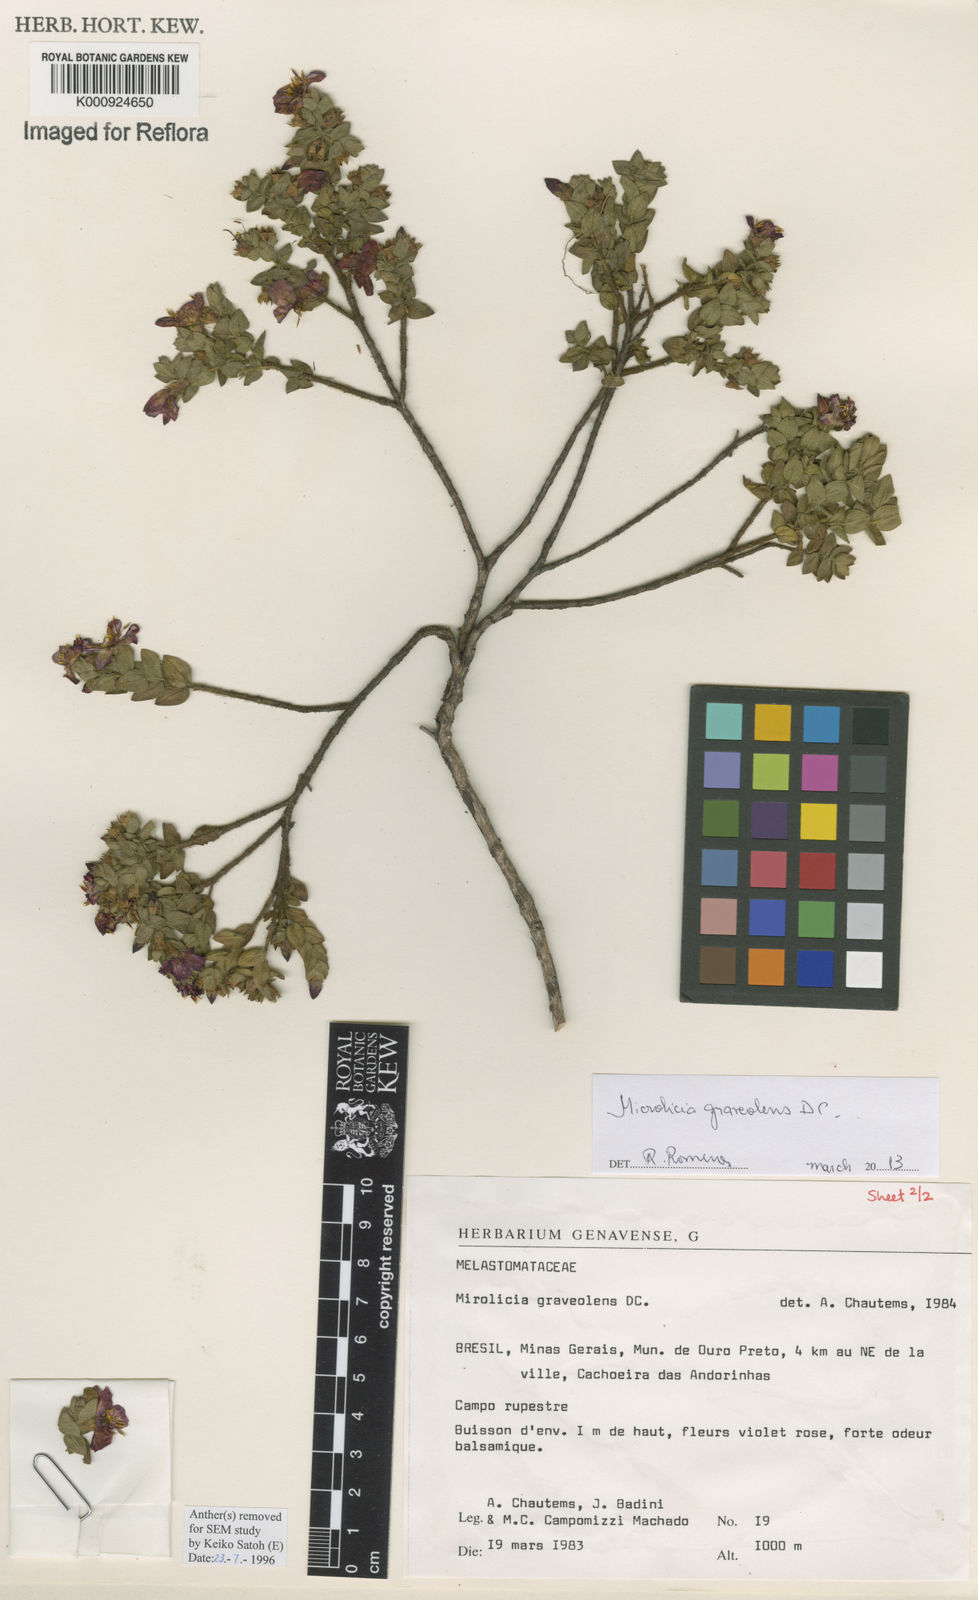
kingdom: Plantae
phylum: Tracheophyta
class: Magnoliopsida
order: Myrtales
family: Melastomataceae
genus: Microlicia
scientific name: Microlicia graveolens
